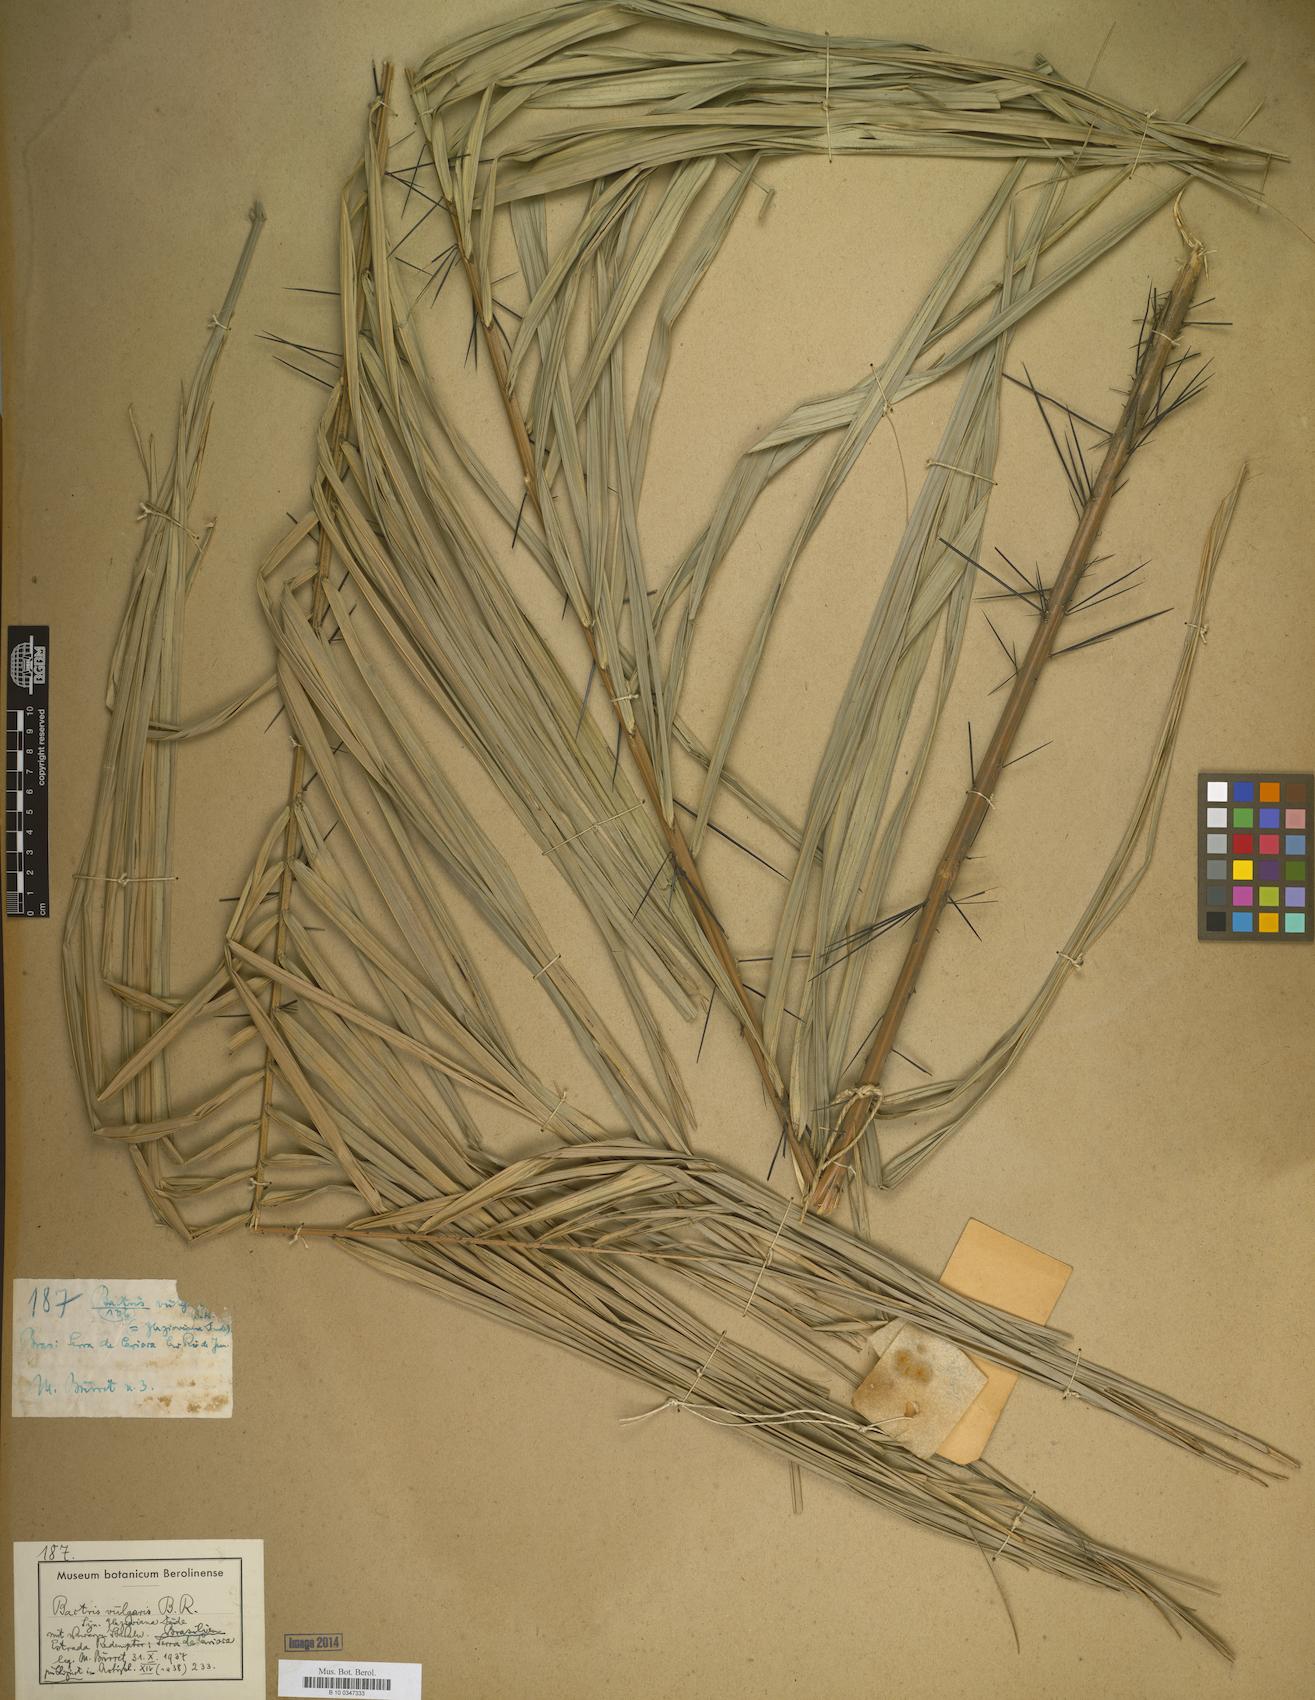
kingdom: Plantae
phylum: Tracheophyta
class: Liliopsida
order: Arecales
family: Arecaceae
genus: Bactris
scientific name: Bactris vulgaris
